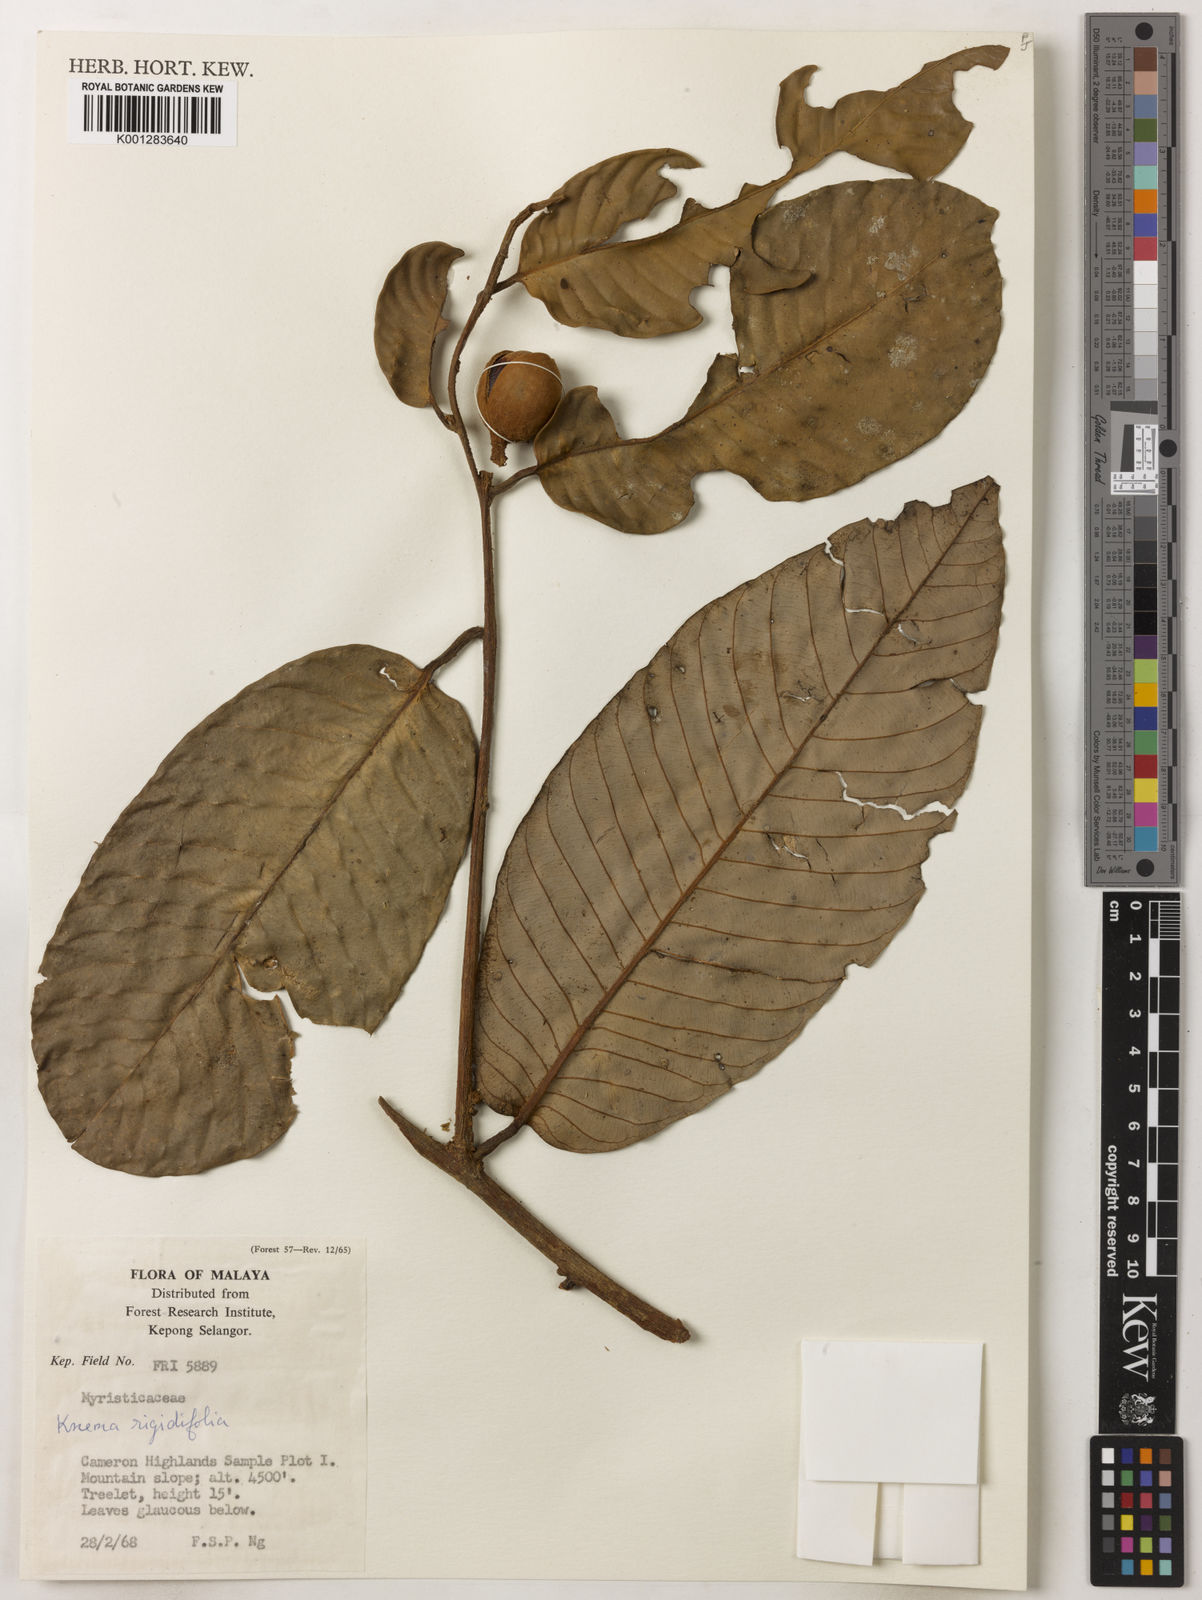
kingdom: Plantae
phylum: Tracheophyta
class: Magnoliopsida
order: Magnoliales
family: Myristicaceae
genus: Knema
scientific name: Knema rigidifolia
